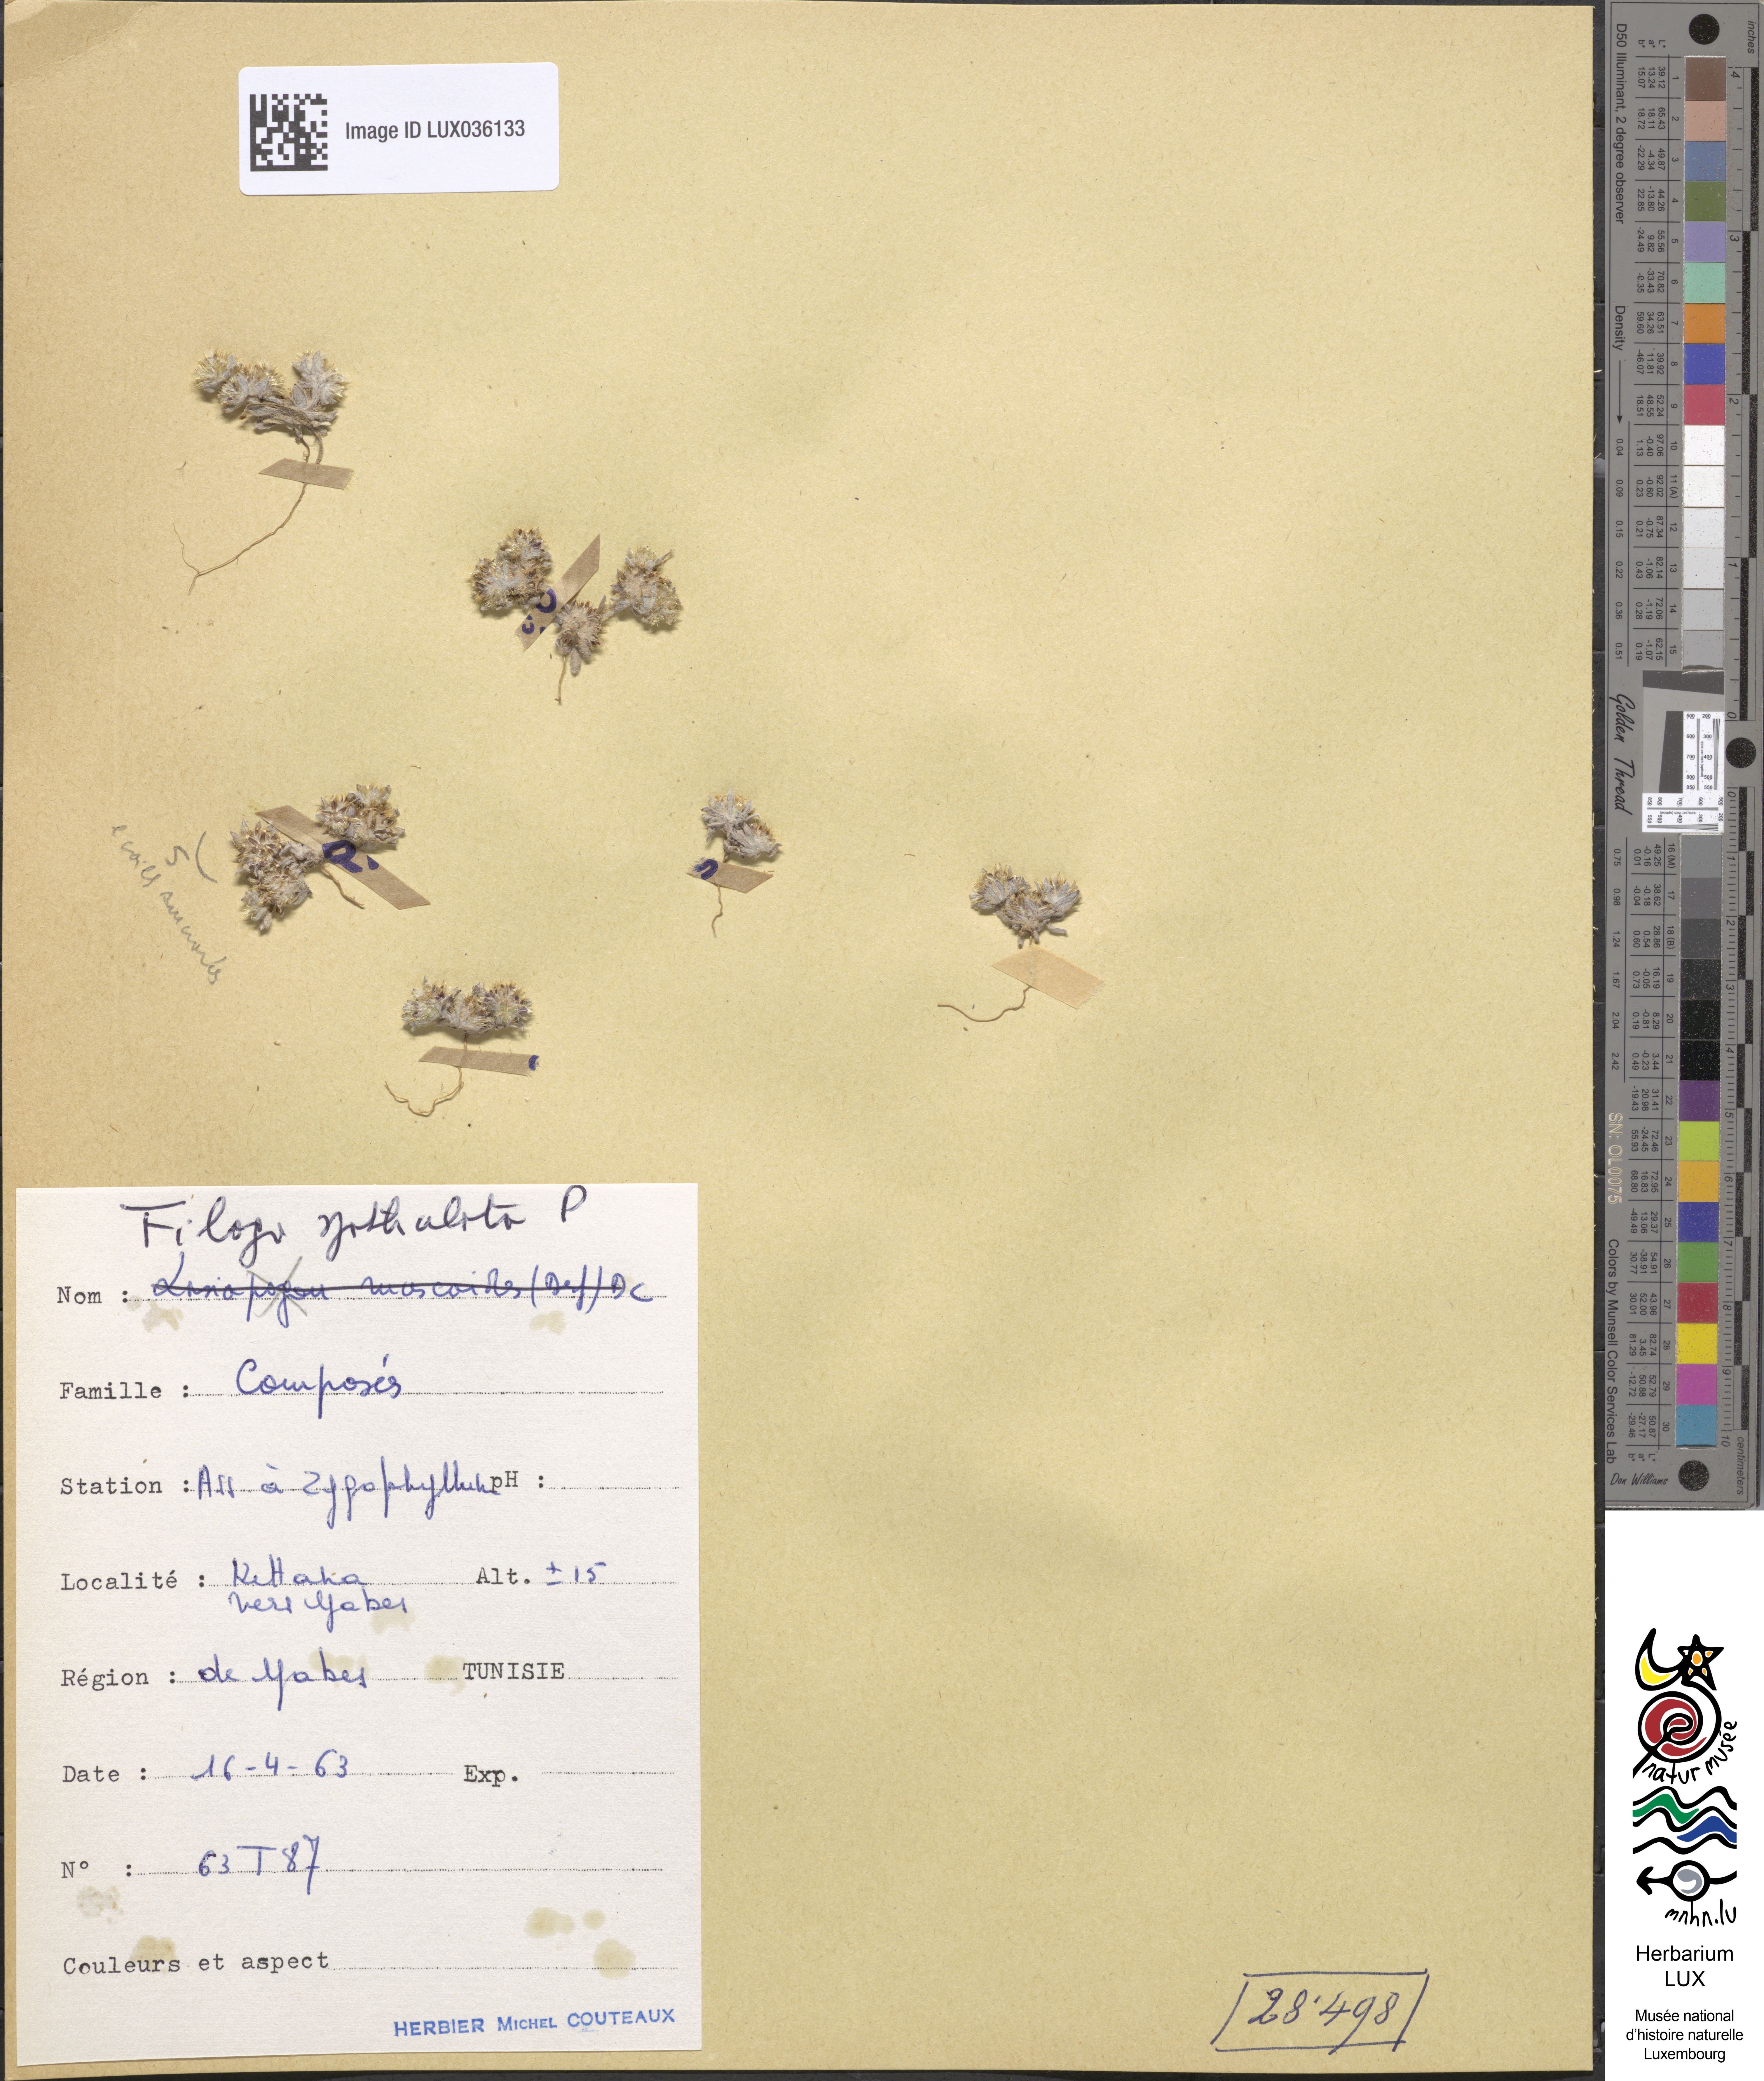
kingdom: Plantae
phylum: Tracheophyta
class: Magnoliopsida
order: Asterales
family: Asteraceae
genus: Filago
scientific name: Filago pyramidata
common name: Broad-leaved cudweed
